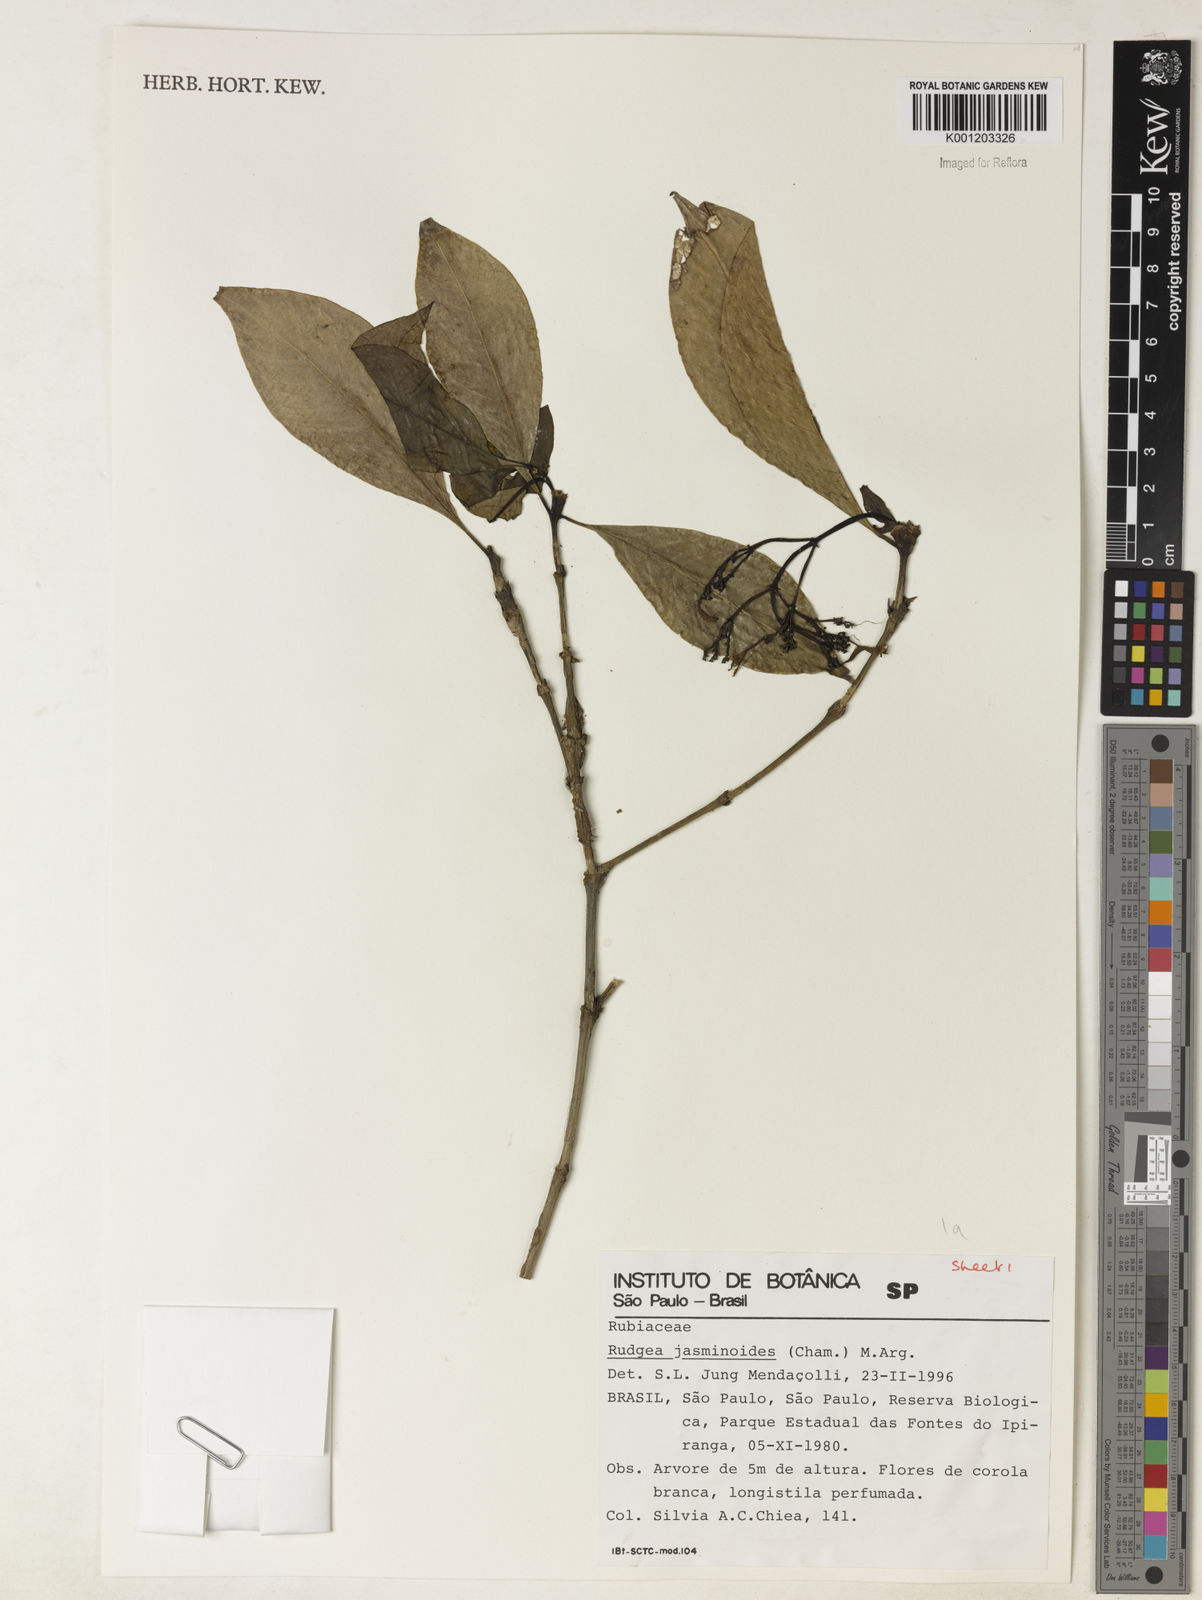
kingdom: Plantae
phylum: Tracheophyta
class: Magnoliopsida
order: Gentianales
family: Rubiaceae
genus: Rudgea
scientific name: Rudgea
